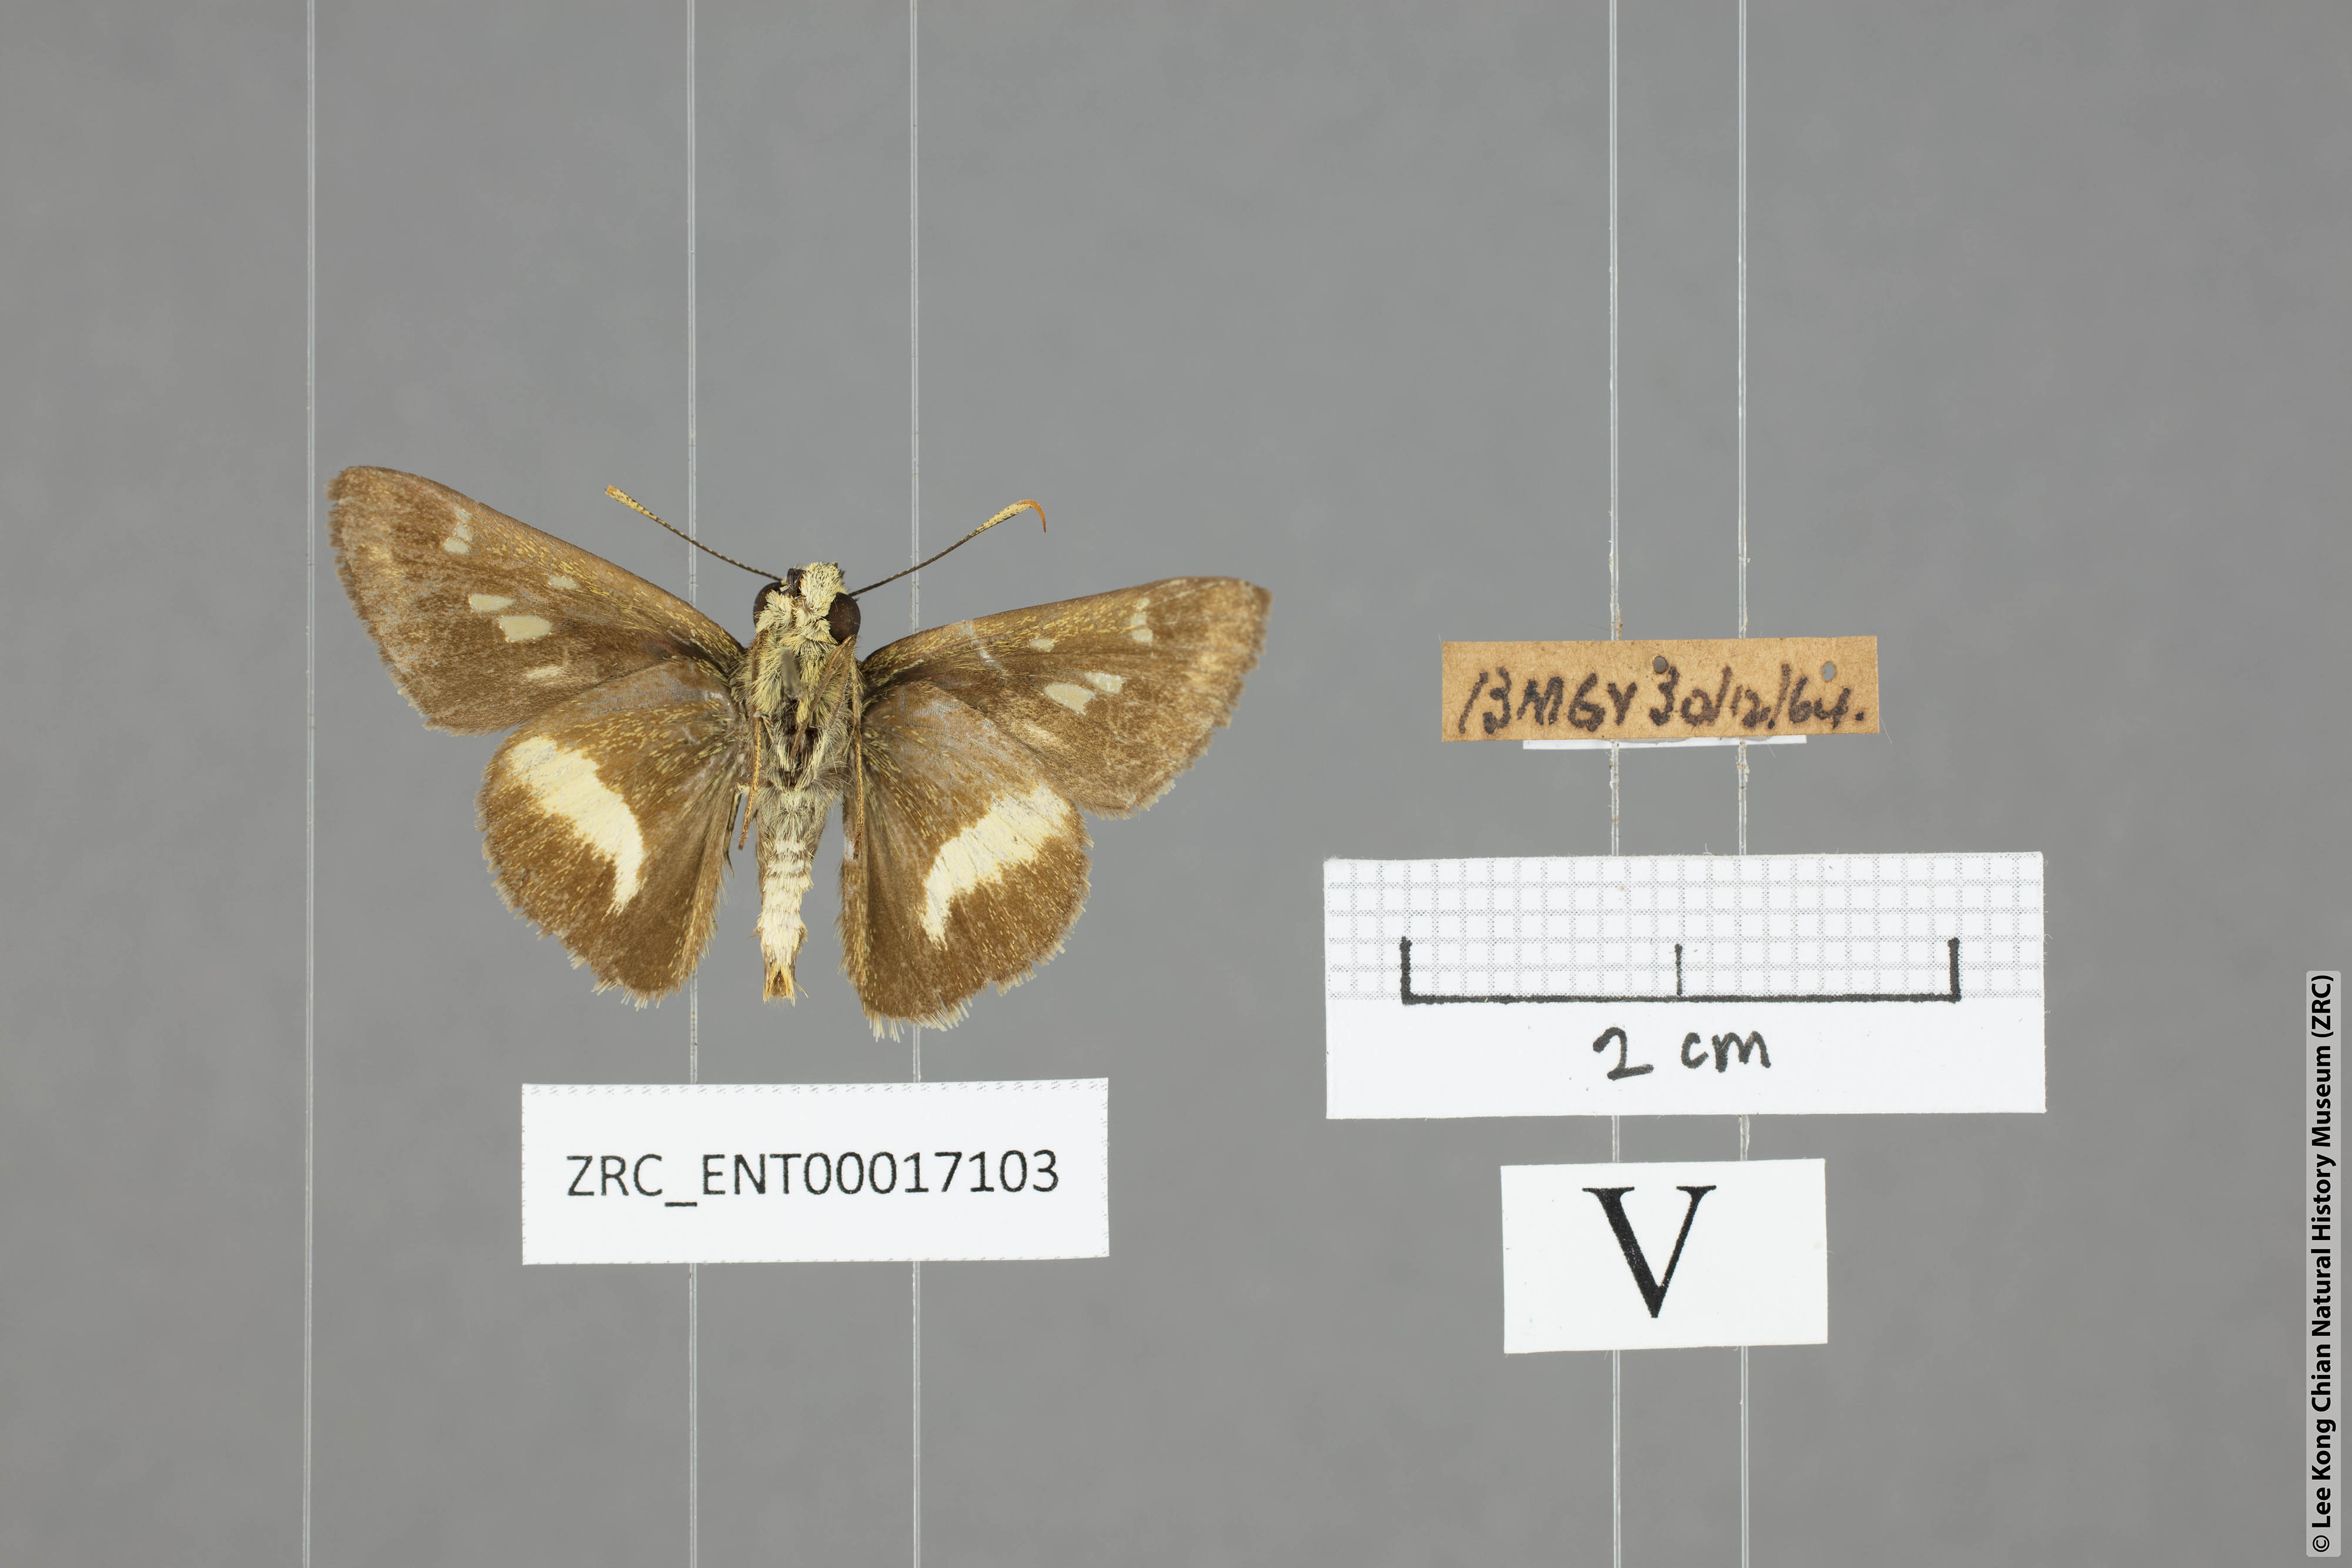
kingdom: Animalia
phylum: Arthropoda
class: Insecta
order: Lepidoptera
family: Hesperiidae
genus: Halpe
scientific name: Halpe zema
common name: Dark banded ace
